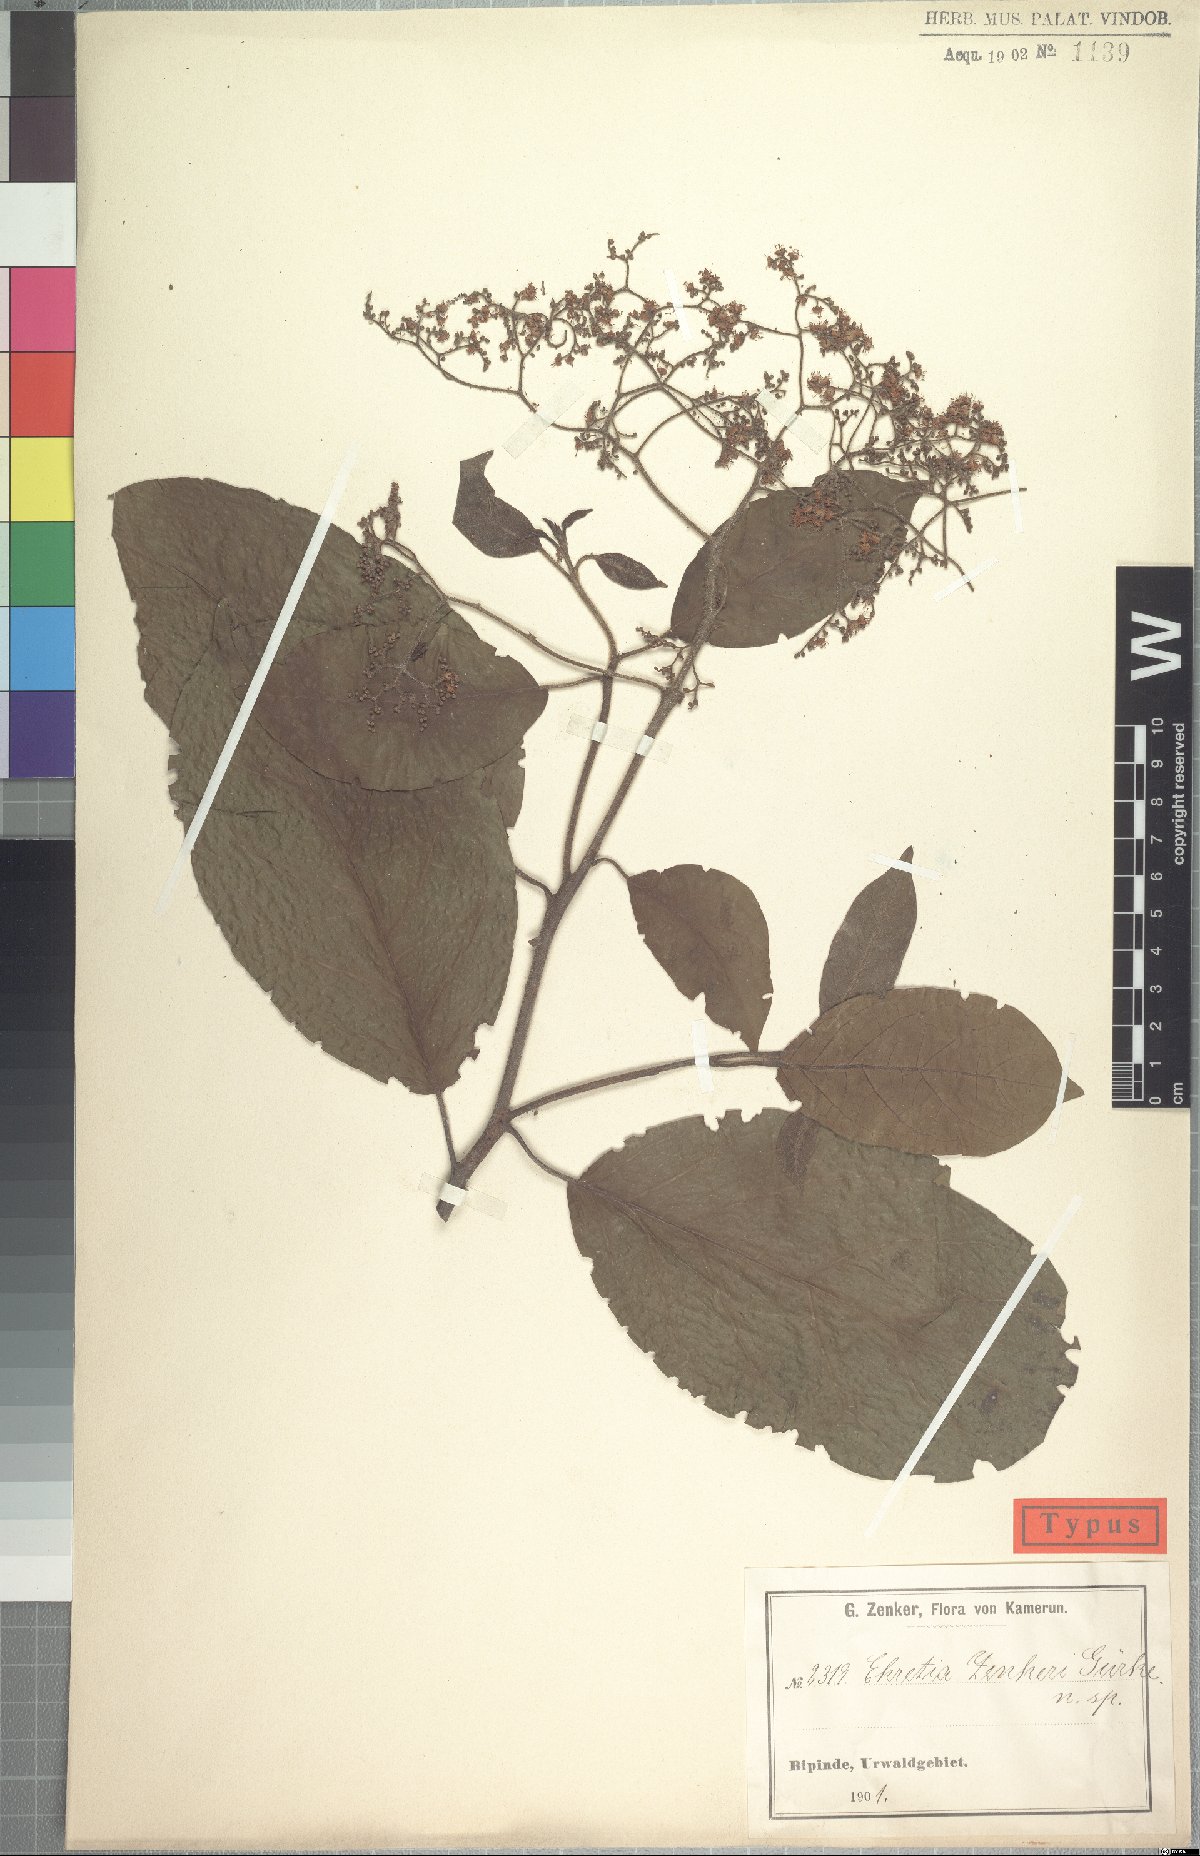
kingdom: Plantae
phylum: Tracheophyta
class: Magnoliopsida
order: Boraginales
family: Ehretiaceae
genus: Ehretia
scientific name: Ehretia cymosa
